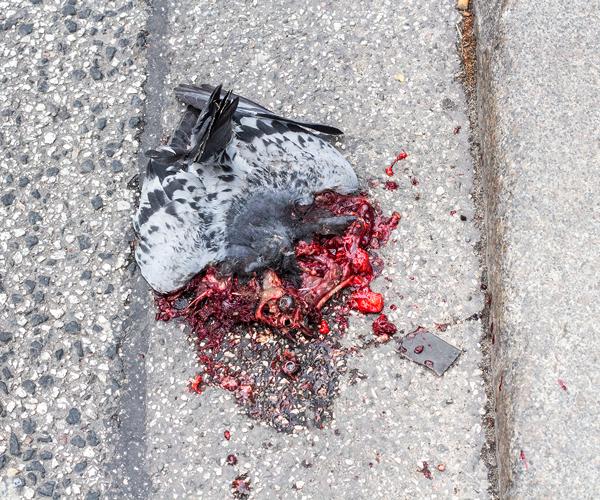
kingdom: Animalia
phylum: Chordata
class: Aves
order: Columbiformes
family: Columbidae
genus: Columba
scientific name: Columba livia
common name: Rock pigeon
